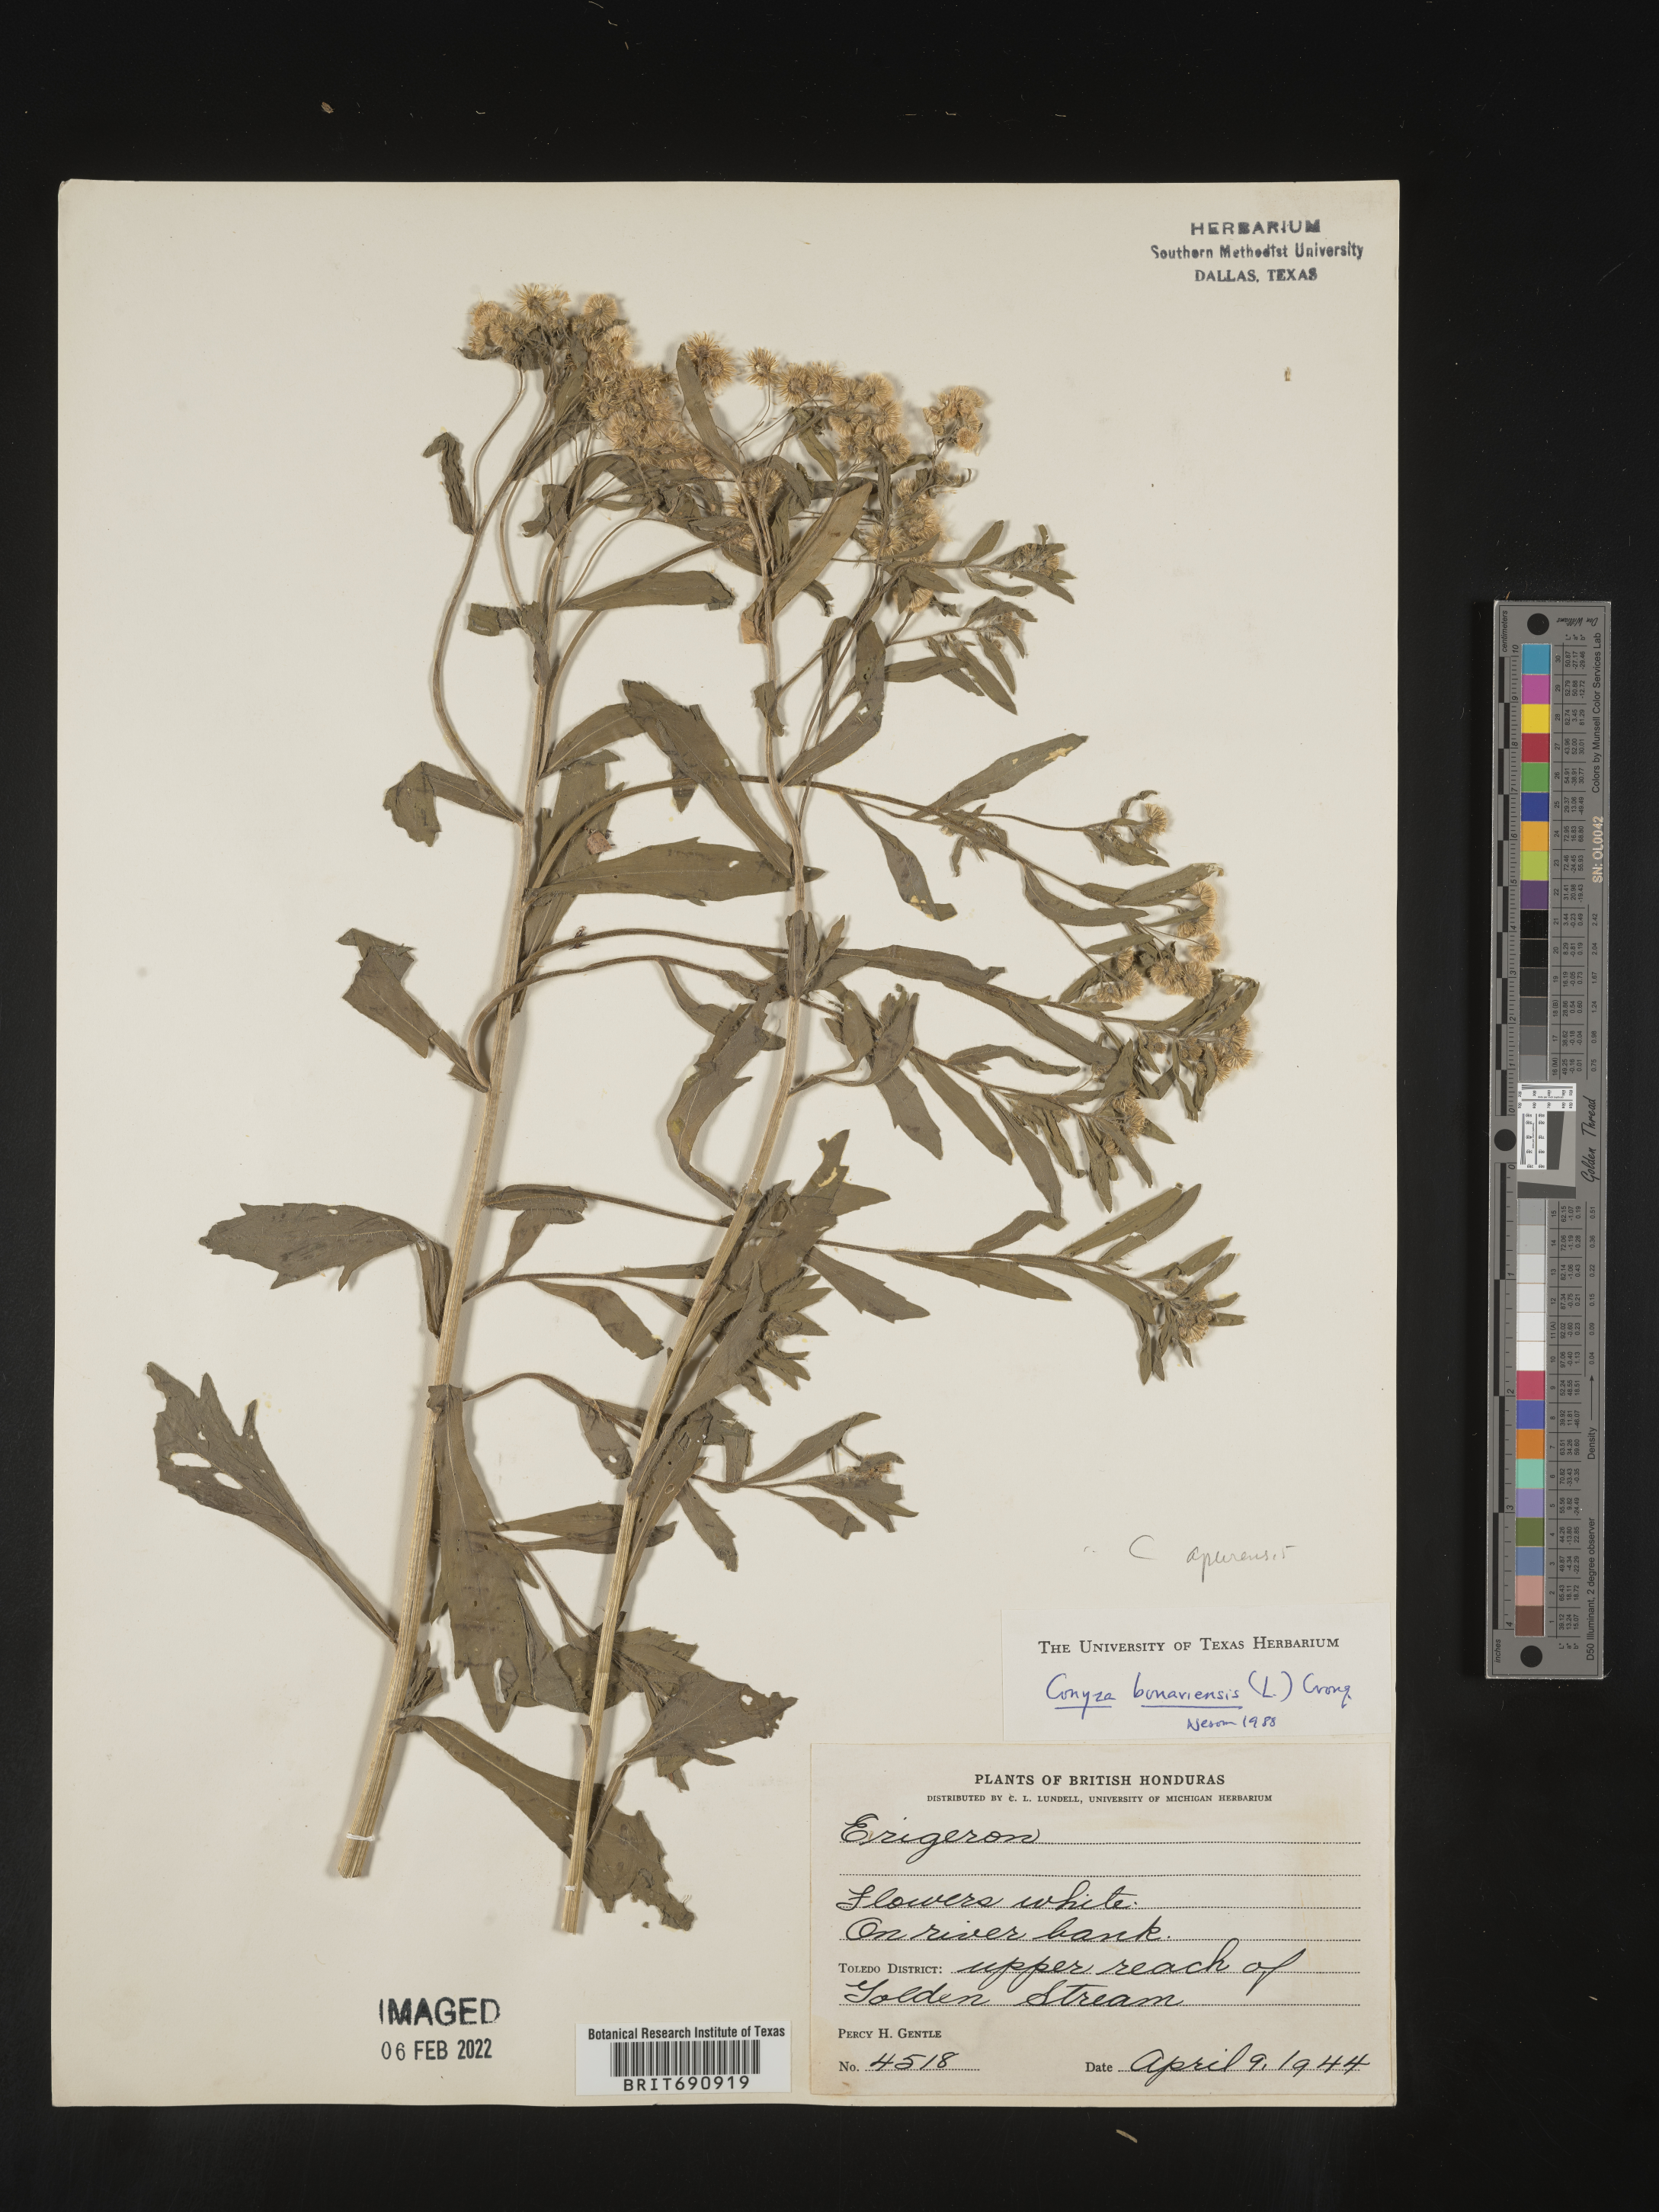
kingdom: Plantae
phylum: Tracheophyta
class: Magnoliopsida
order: Asterales
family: Asteraceae
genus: Erigeron
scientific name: Erigeron laevigatus
